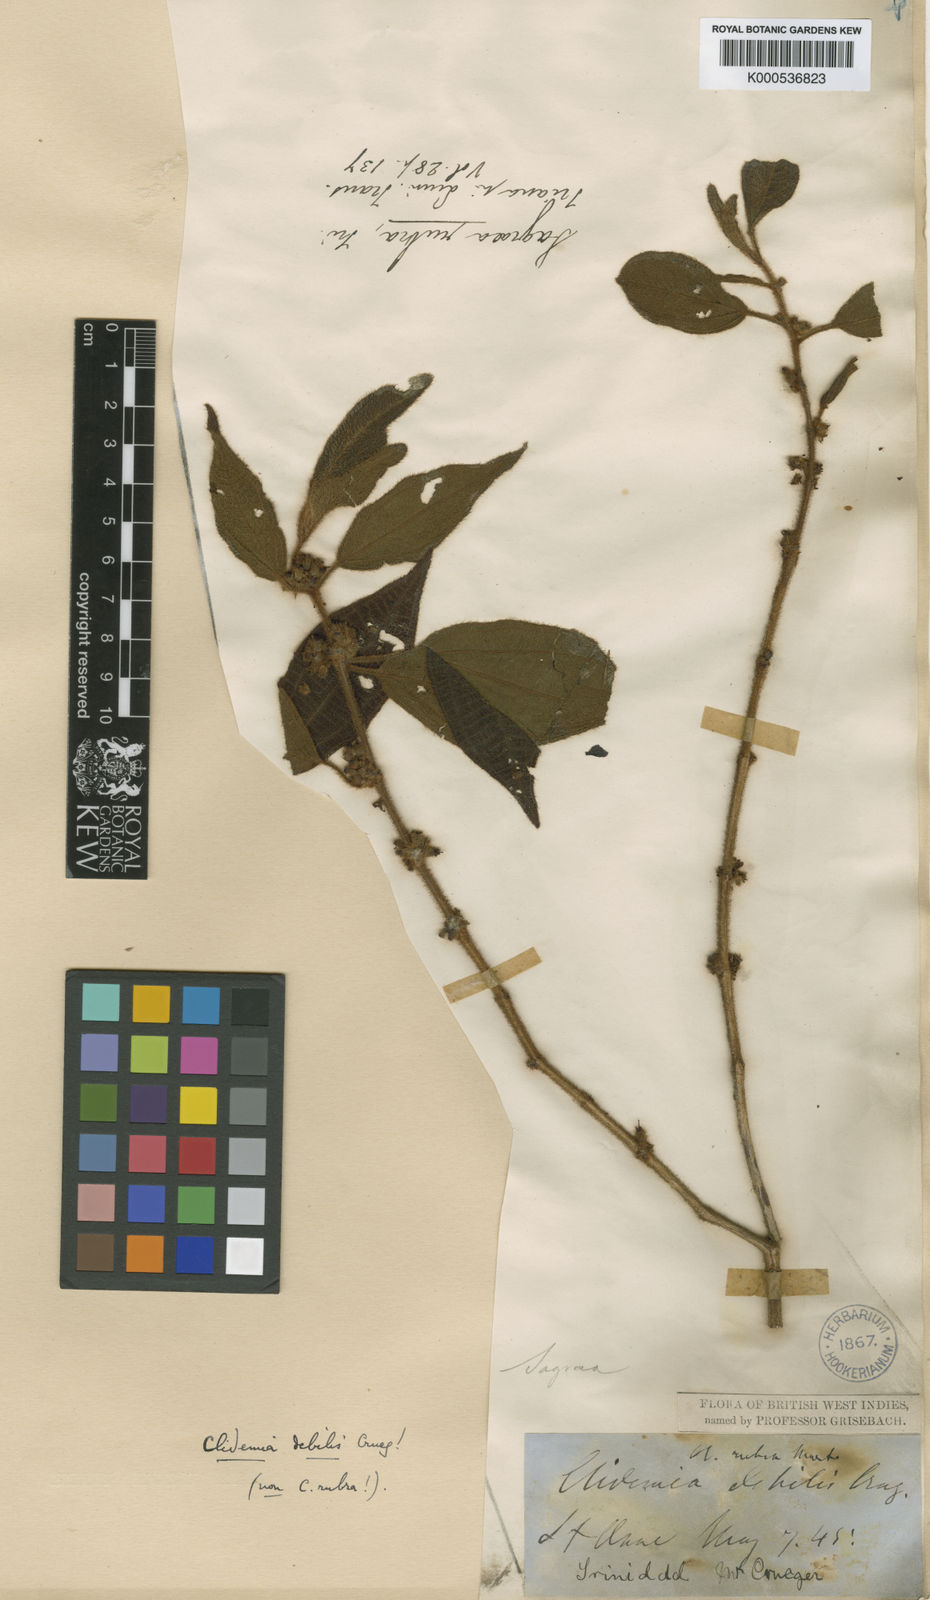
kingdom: Plantae
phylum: Tracheophyta
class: Magnoliopsida
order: Myrtales
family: Melastomataceae
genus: Miconia
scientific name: Miconia debilis
